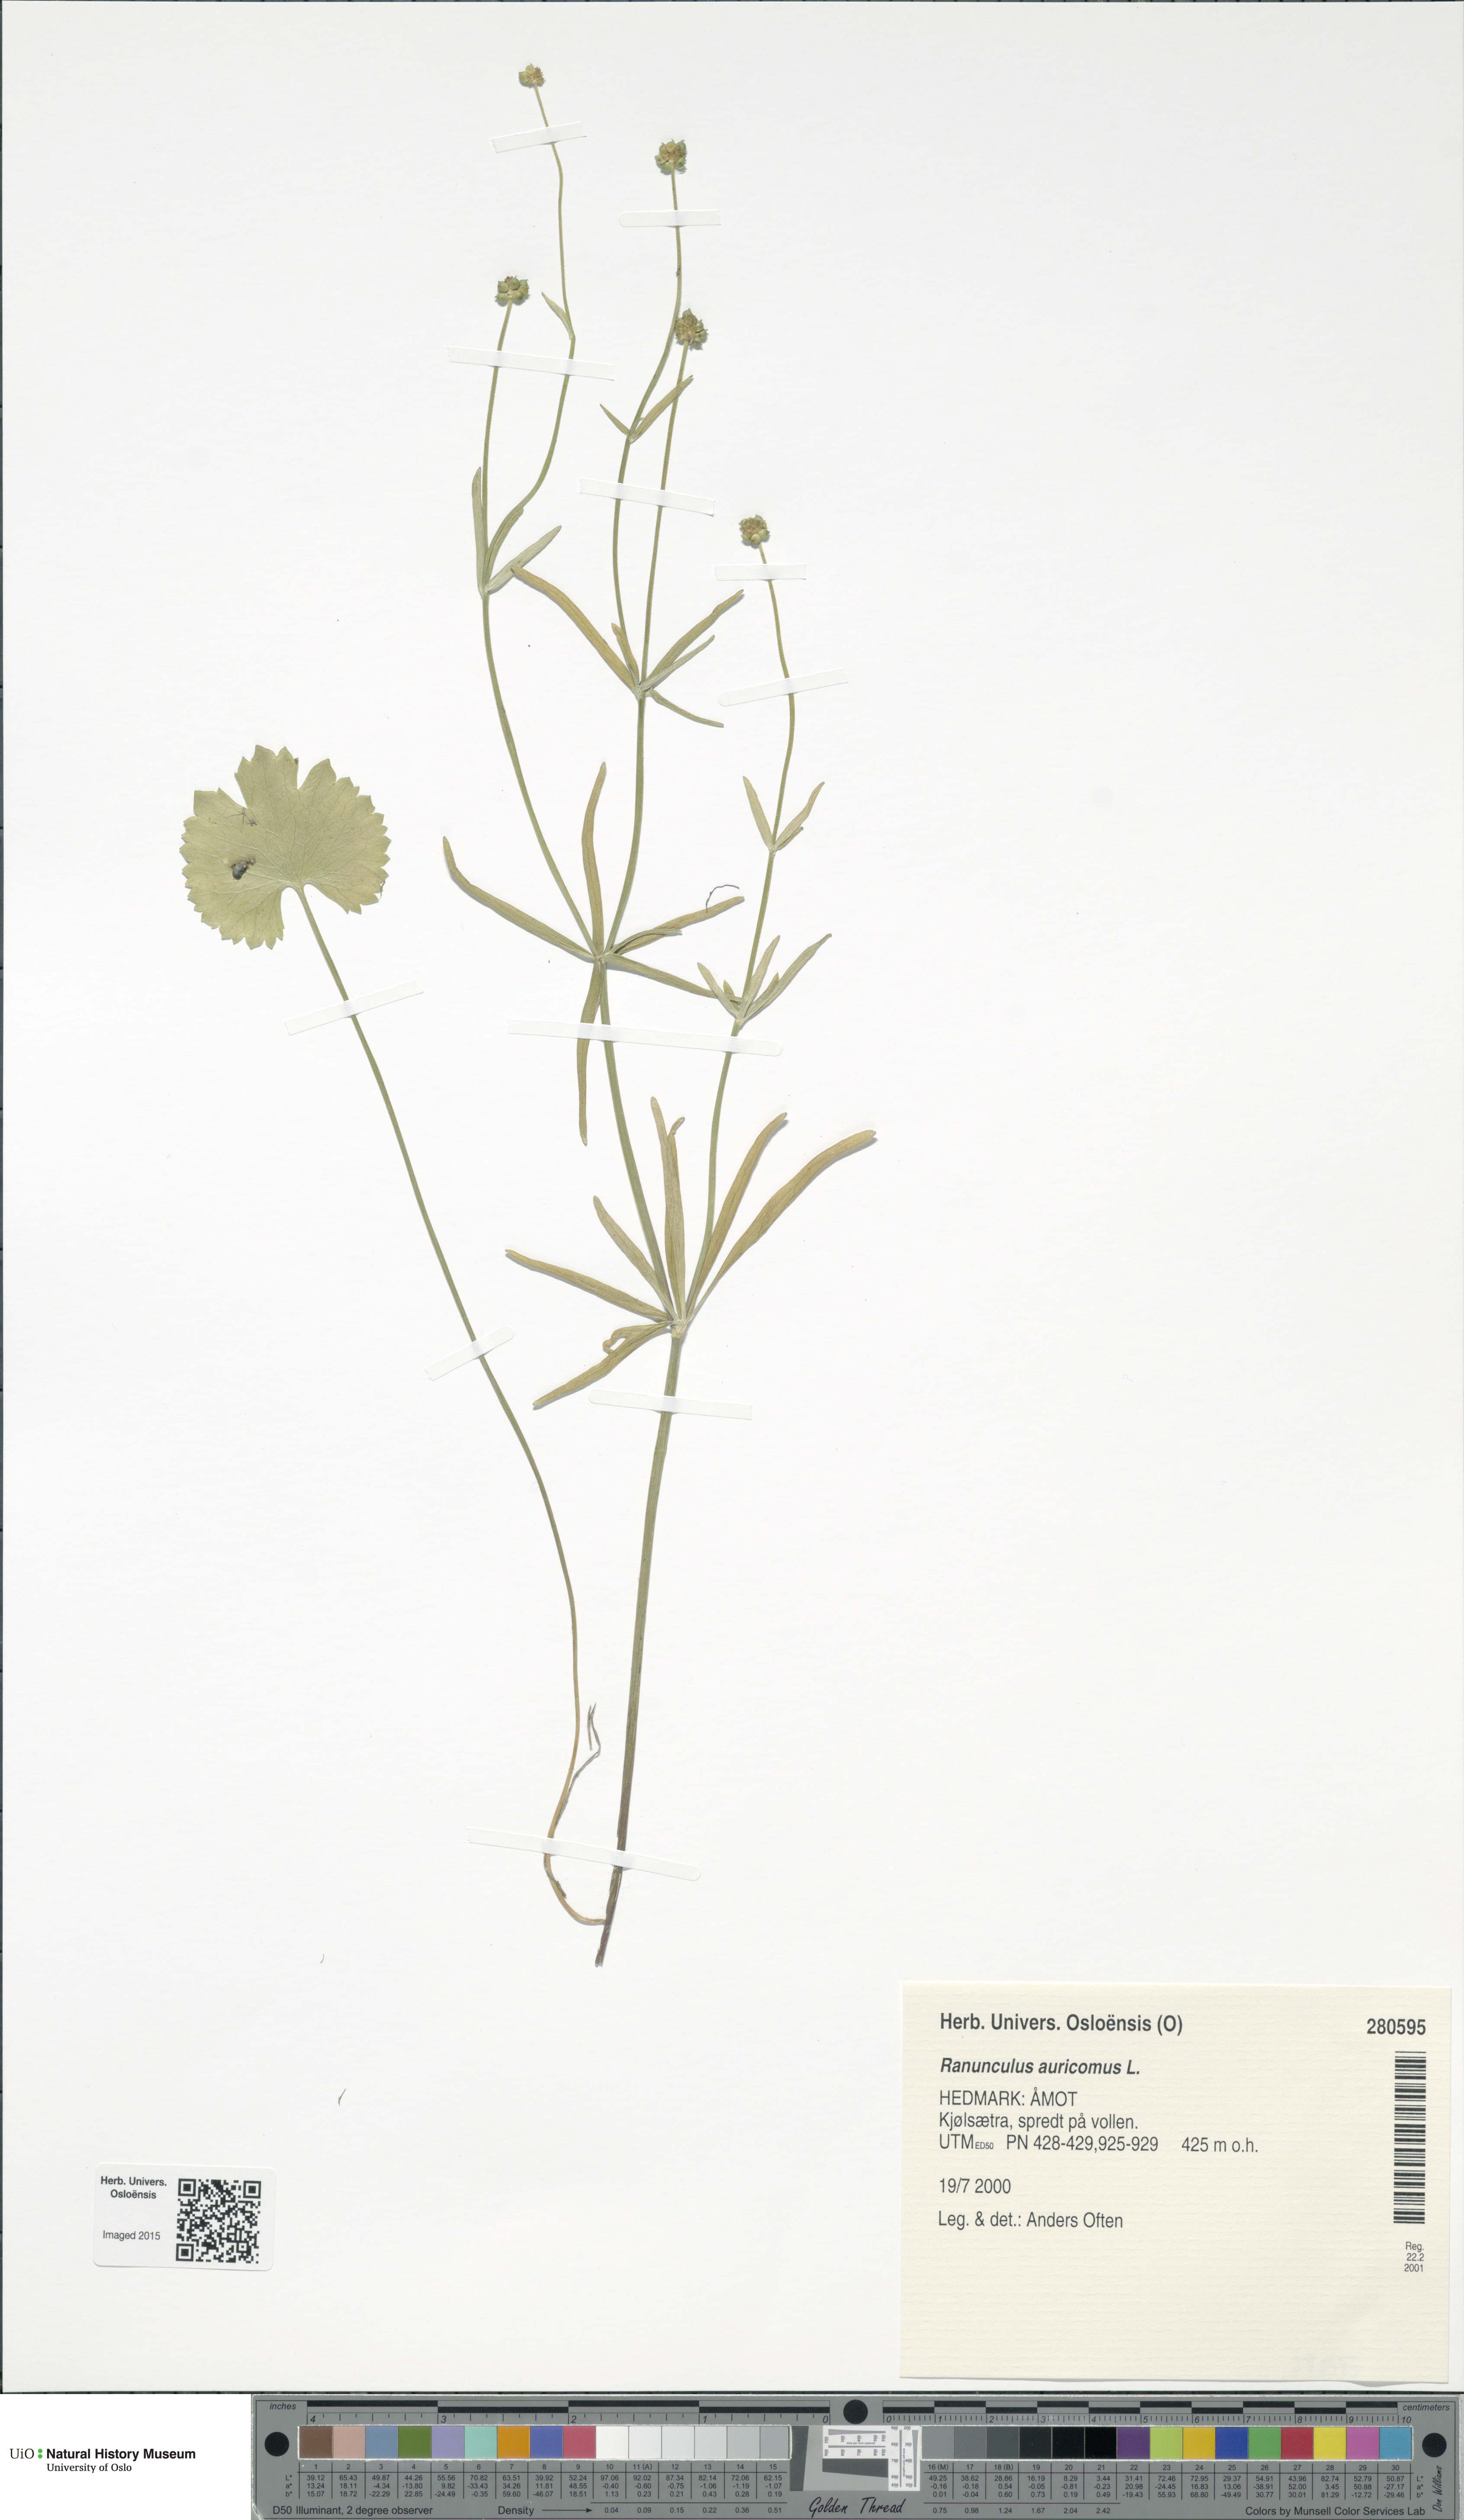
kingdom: Plantae
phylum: Tracheophyta
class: Magnoliopsida
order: Ranunculales
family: Ranunculaceae
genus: Ranunculus
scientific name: Ranunculus auricomus
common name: Goldilocks buttercup
